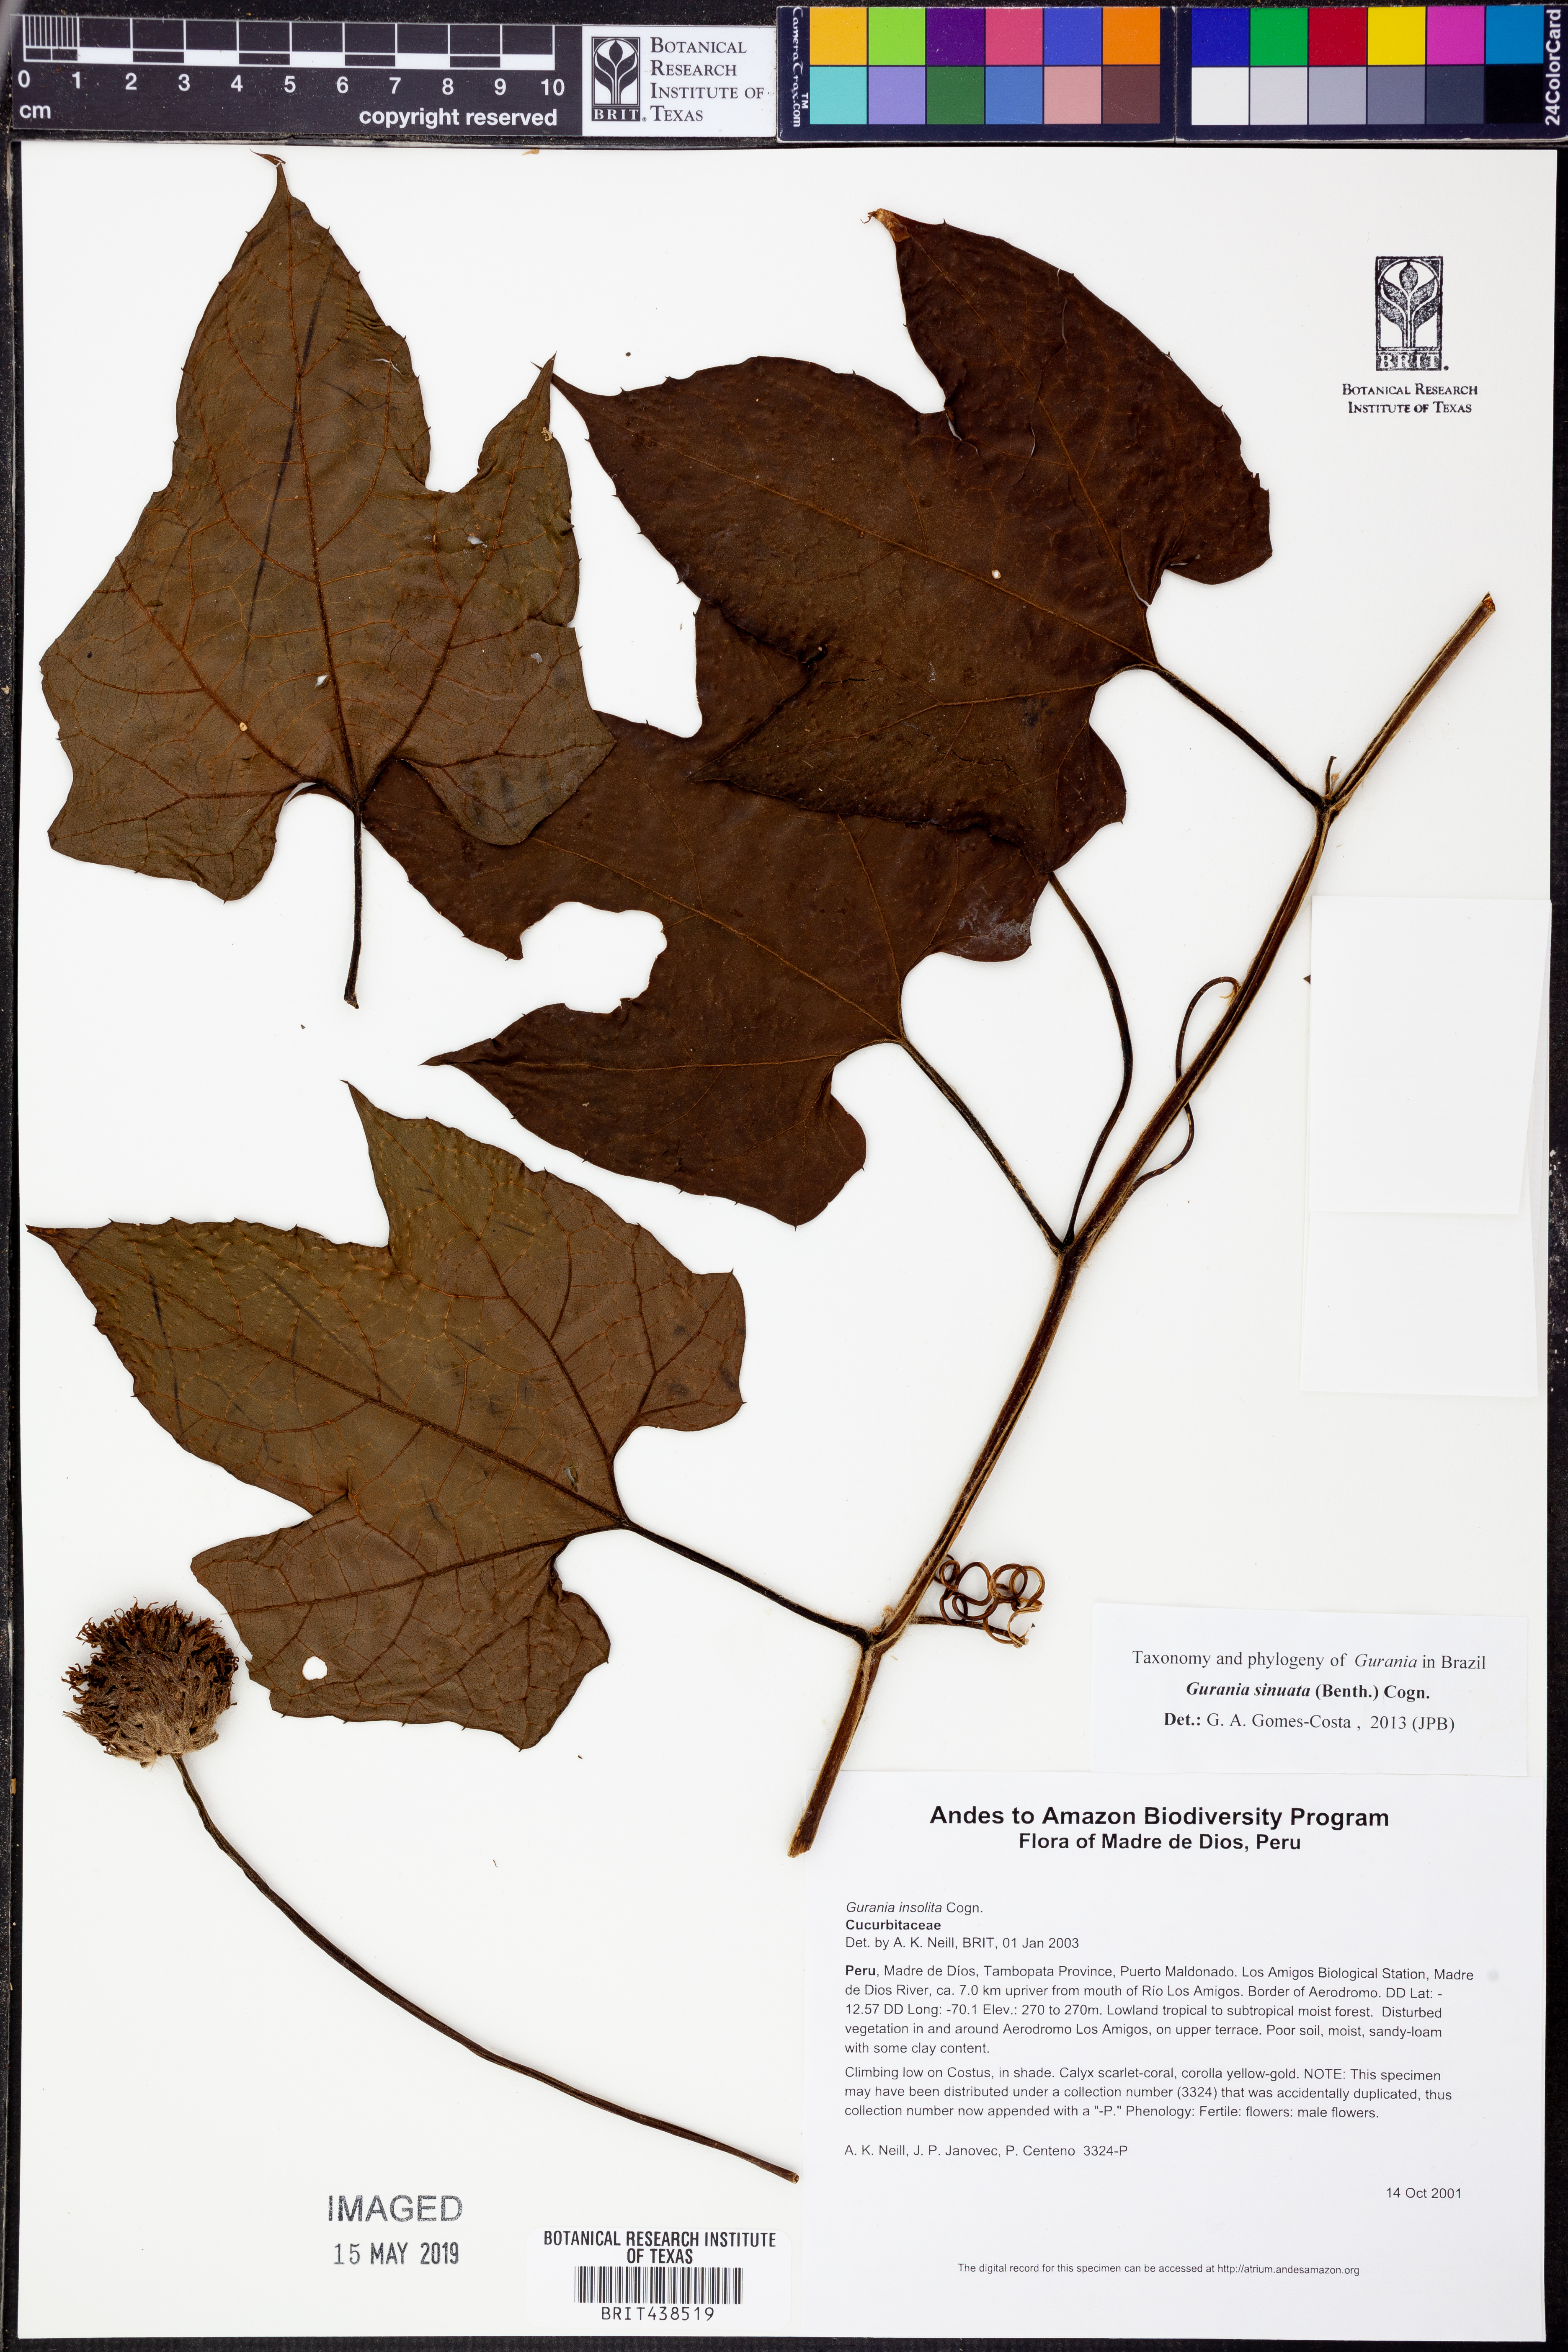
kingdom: Plantae
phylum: Tracheophyta
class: Magnoliopsida
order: Cucurbitales
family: Cucurbitaceae
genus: Gurania
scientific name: Gurania
